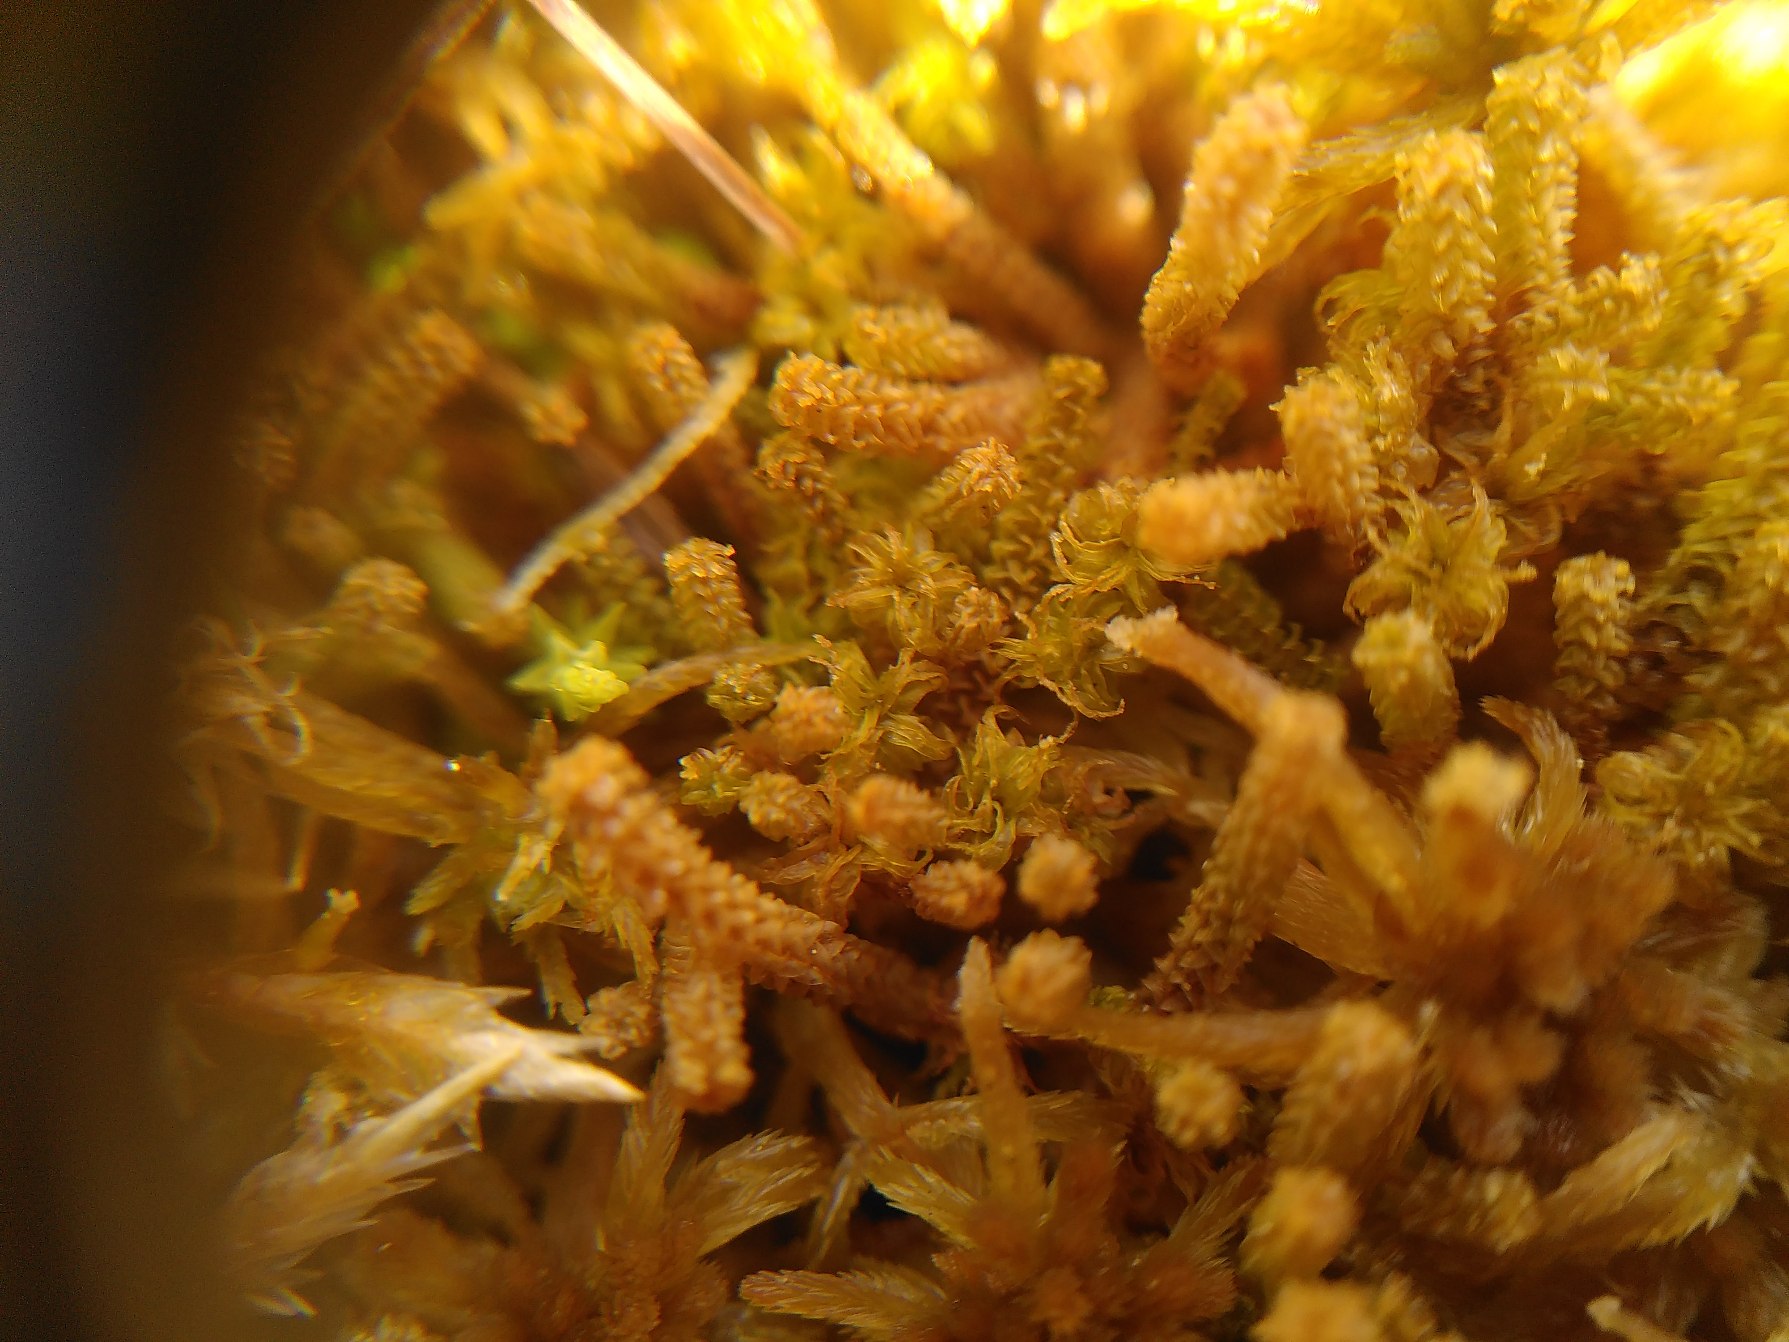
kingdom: Plantae
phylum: Bryophyta
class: Bryopsida
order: Splachnales
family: Meesiaceae
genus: Paludella
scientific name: Paludella squarrosa
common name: Almindelig piberensermos
